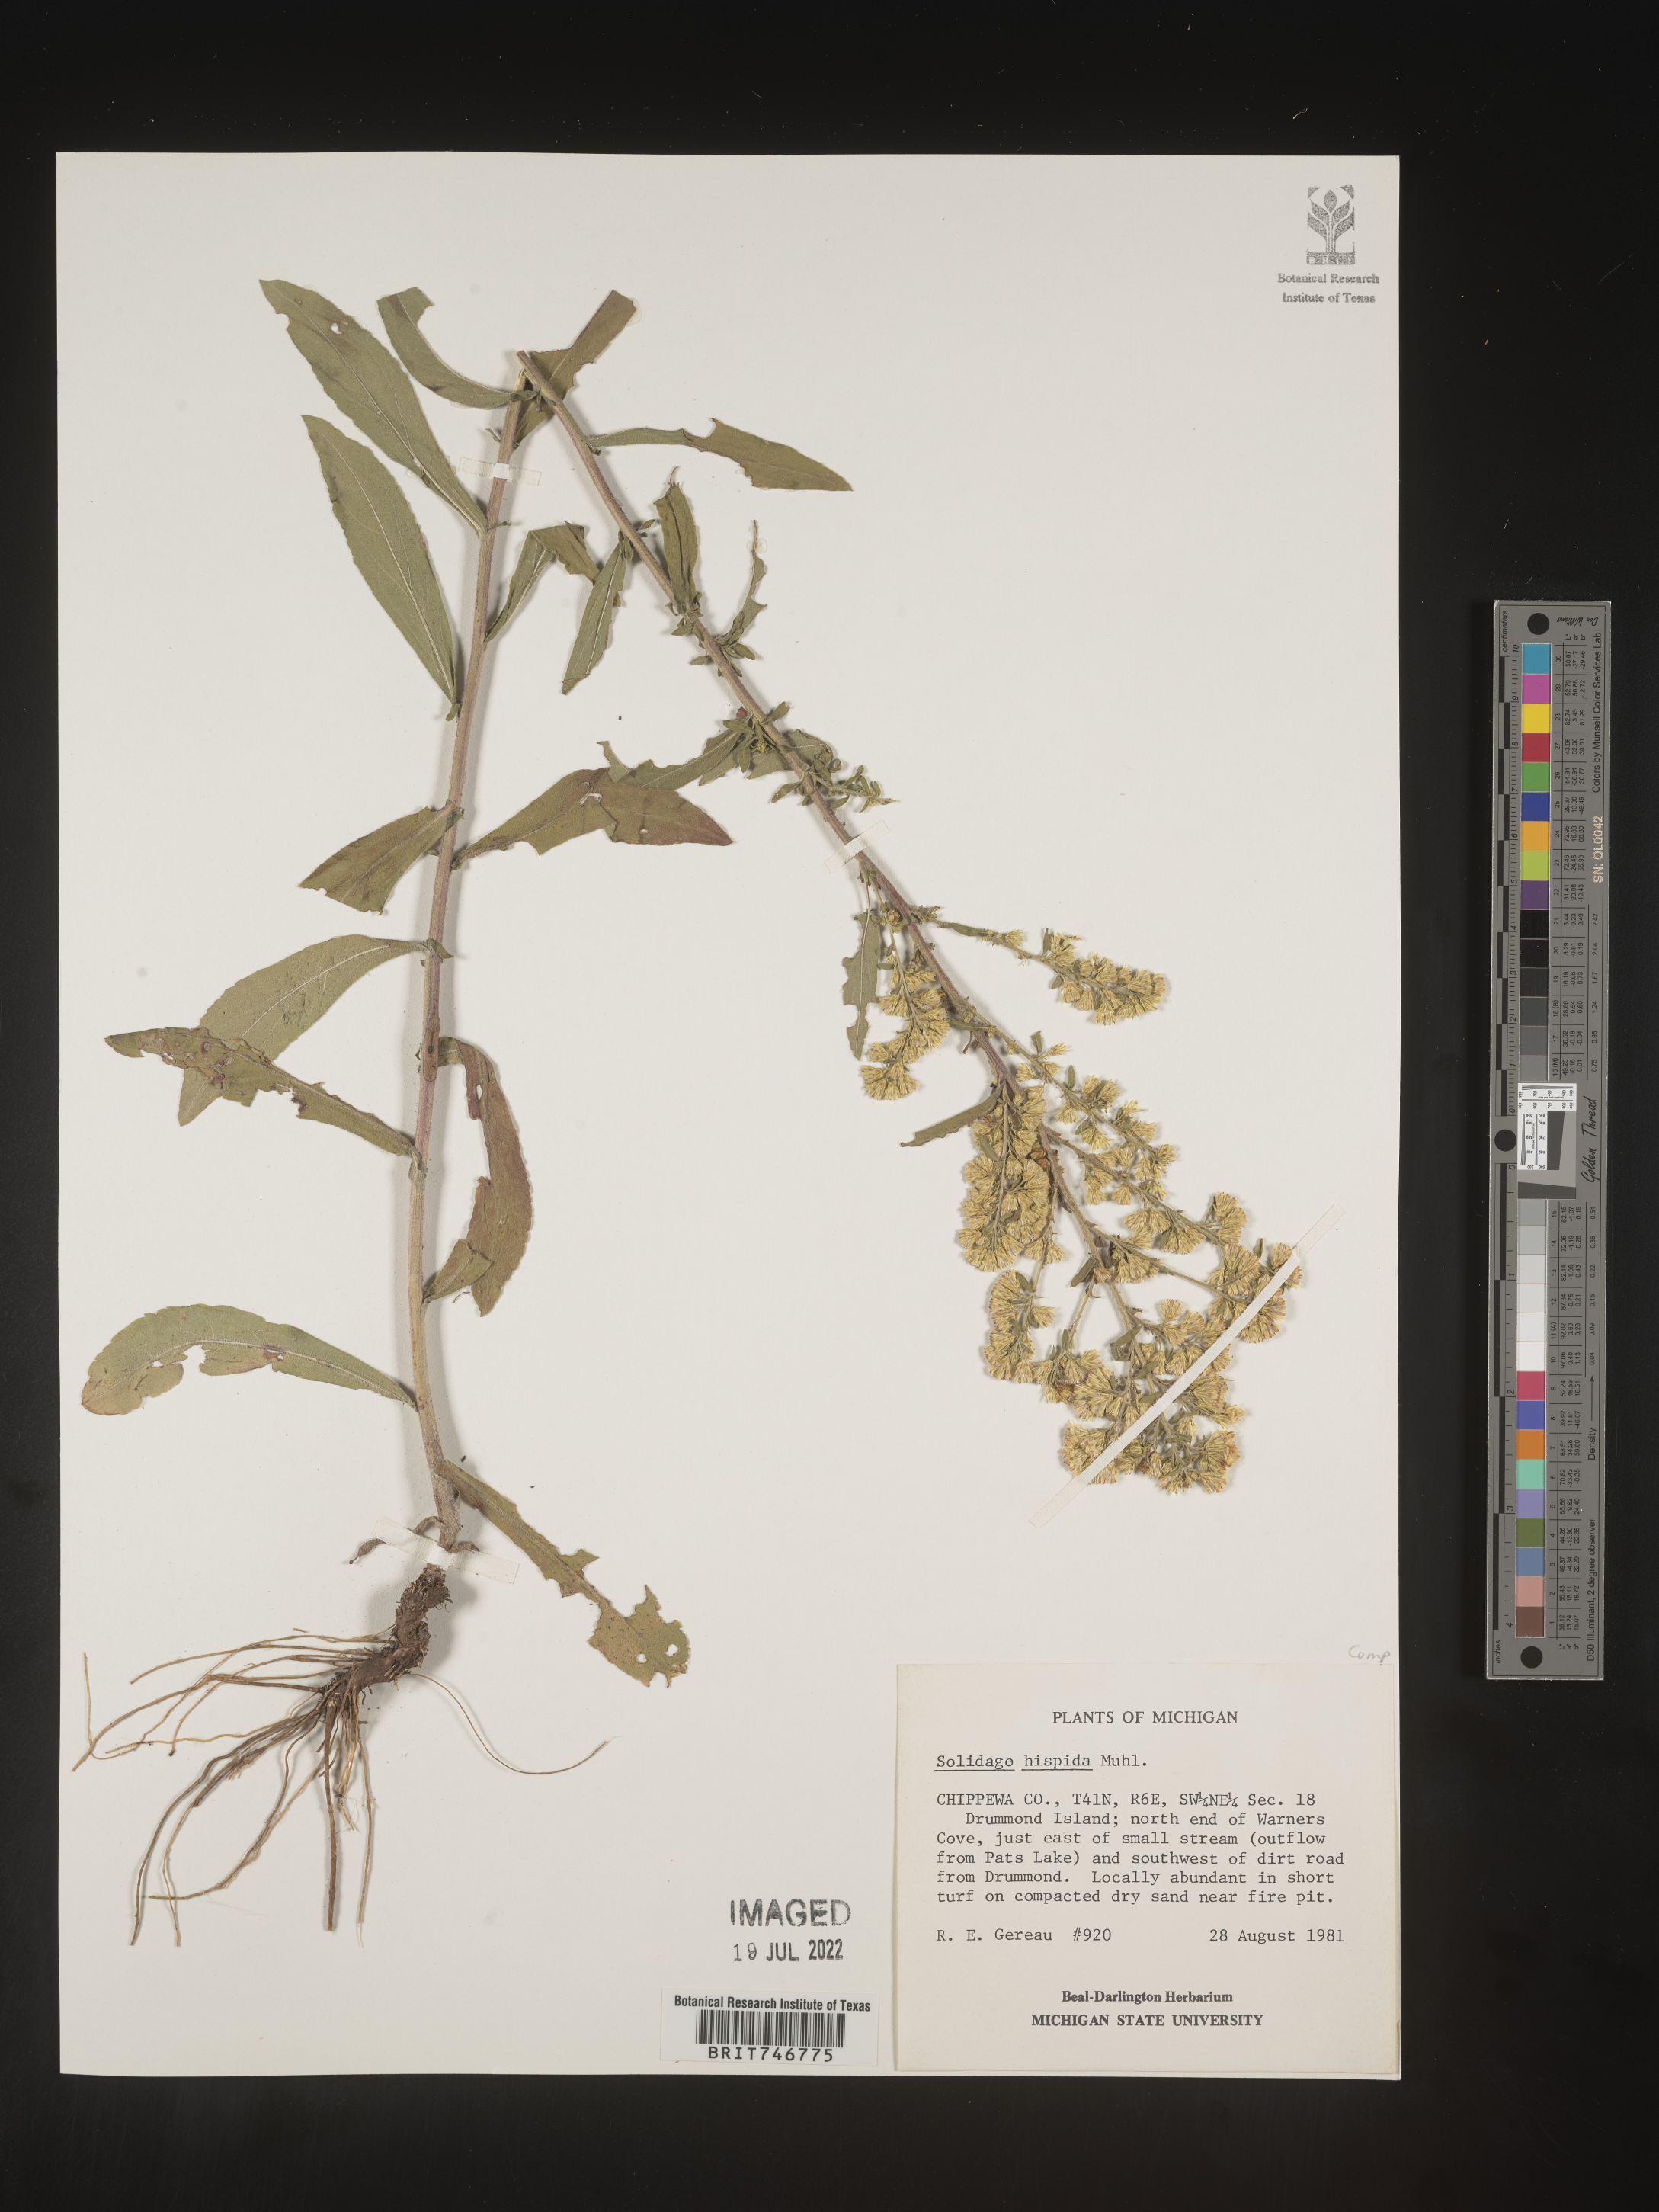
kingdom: Plantae
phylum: Tracheophyta
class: Magnoliopsida
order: Asterales
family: Asteraceae
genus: Solidago
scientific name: Solidago hispida
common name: Hairy goldenrod
